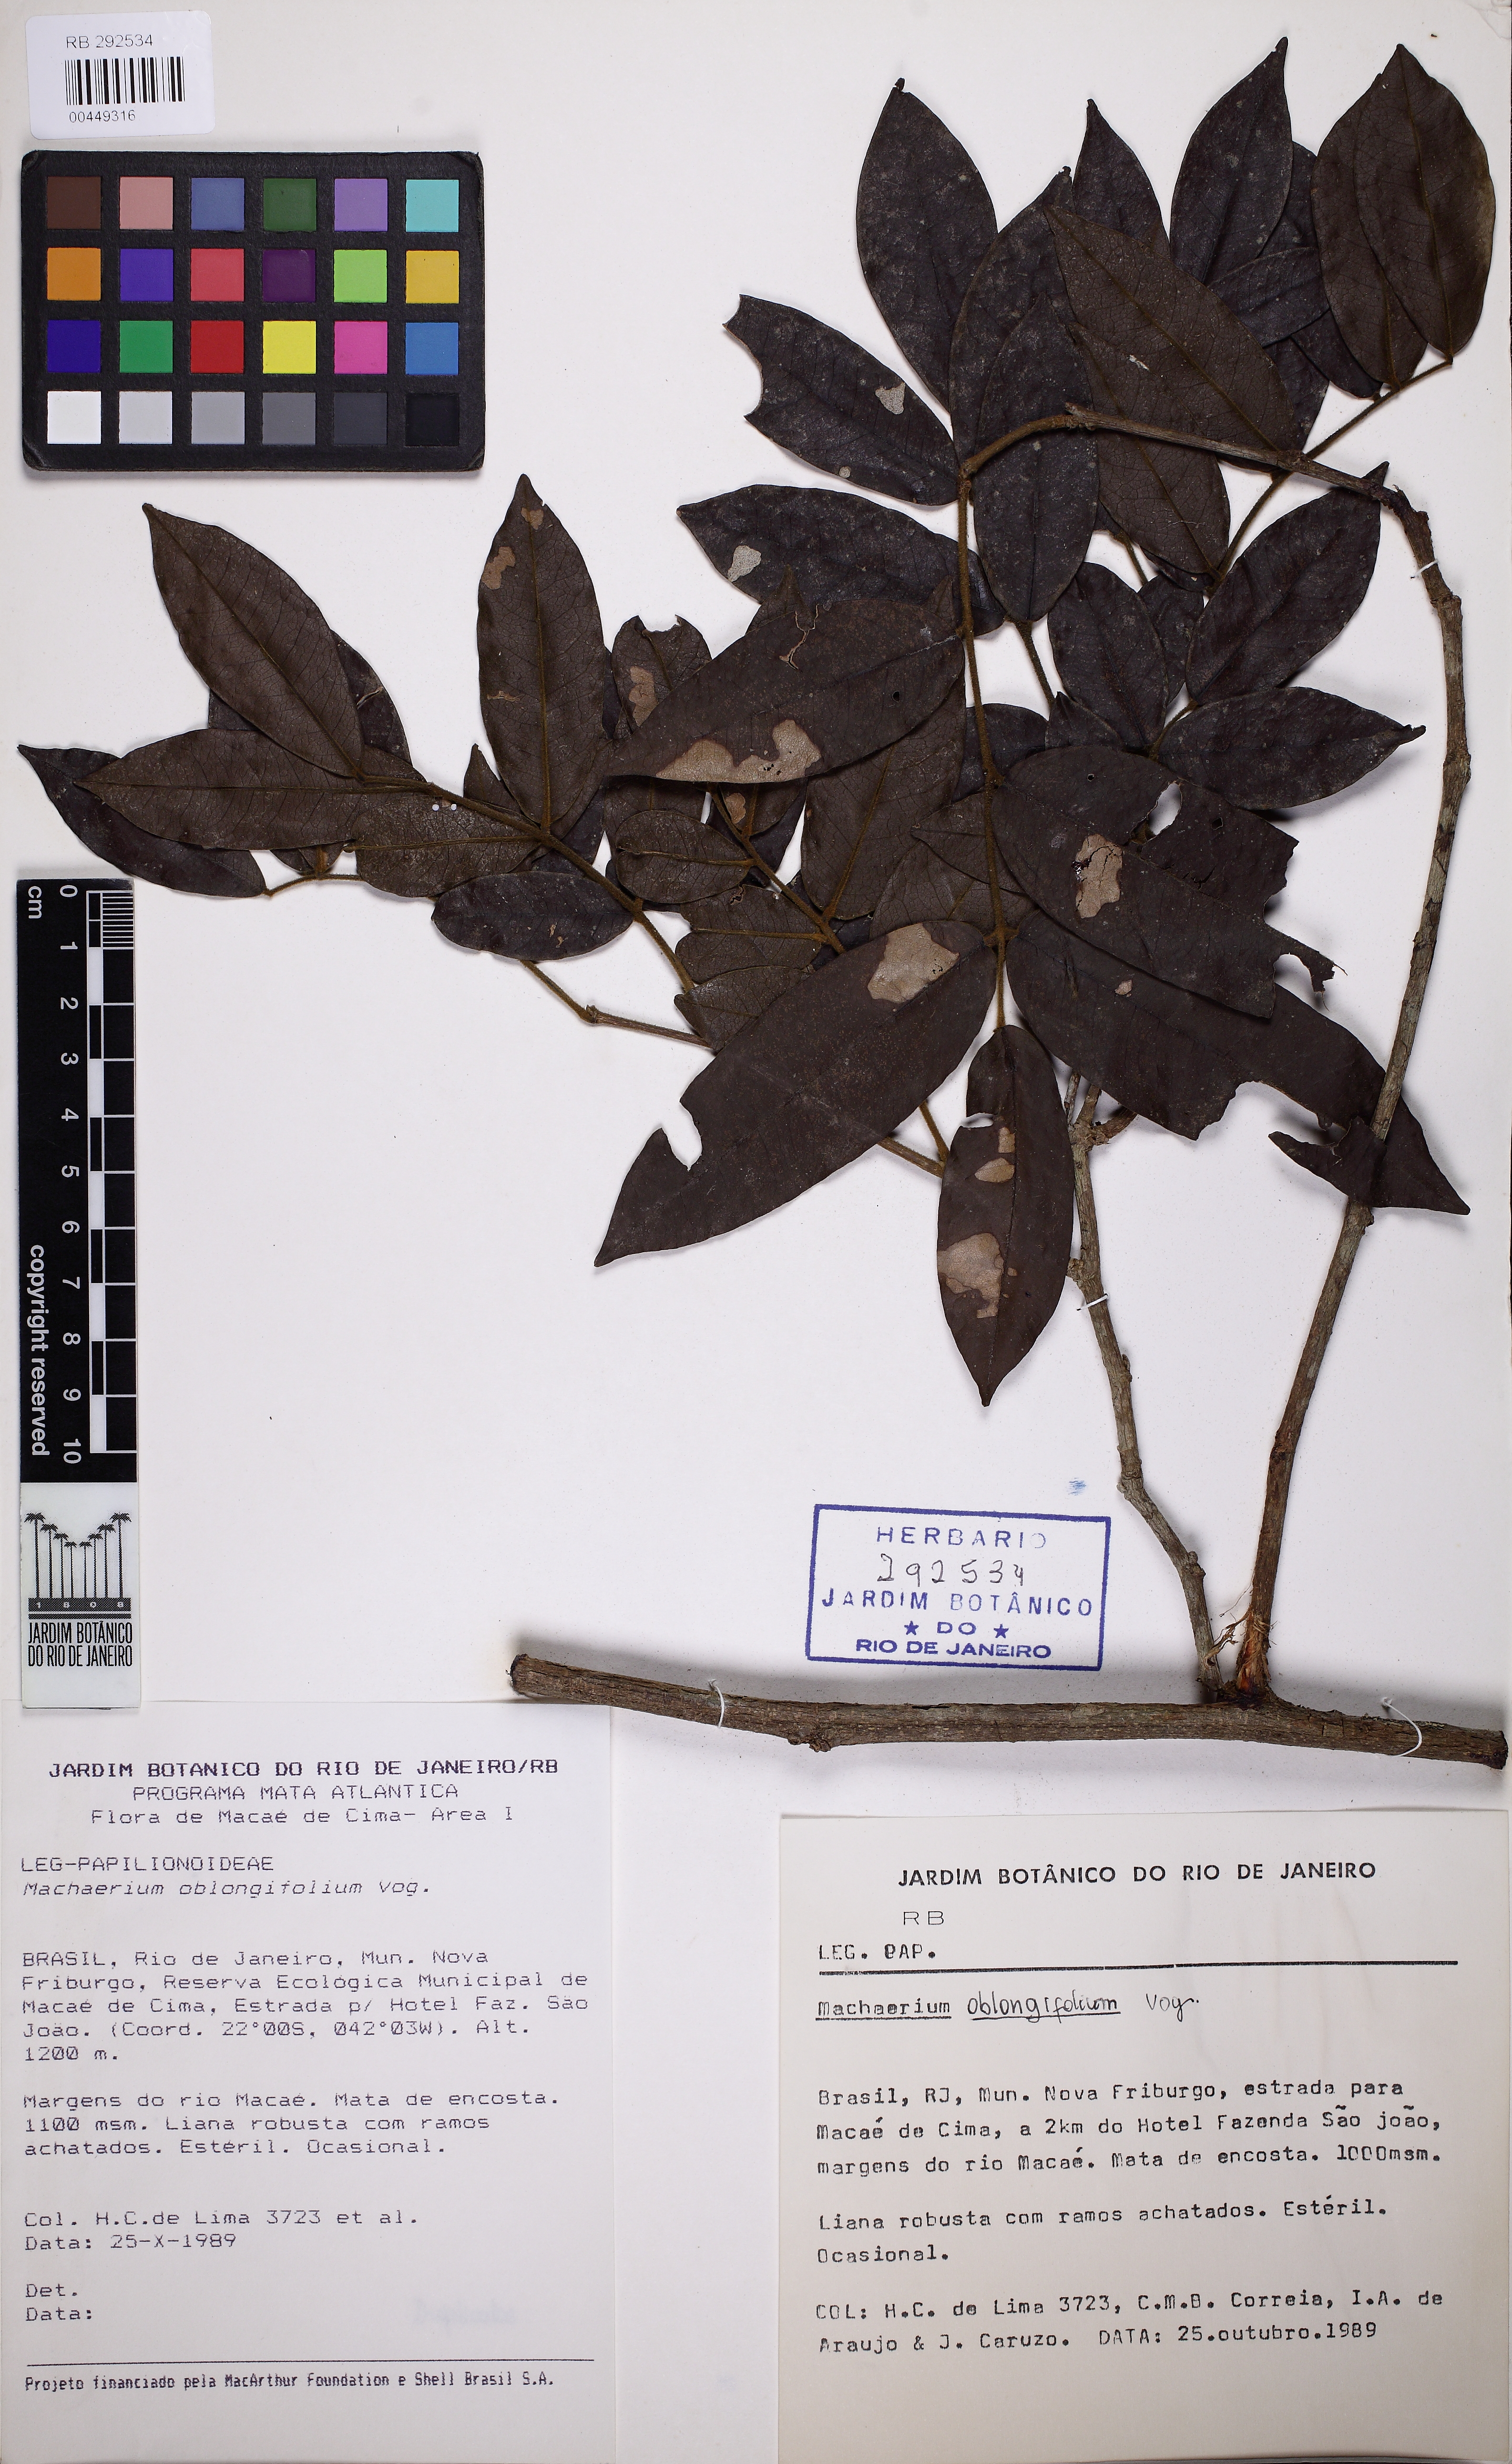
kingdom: Plantae
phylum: Tracheophyta
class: Magnoliopsida
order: Fabales
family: Fabaceae
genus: Machaerium
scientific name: Machaerium oblongifolium
